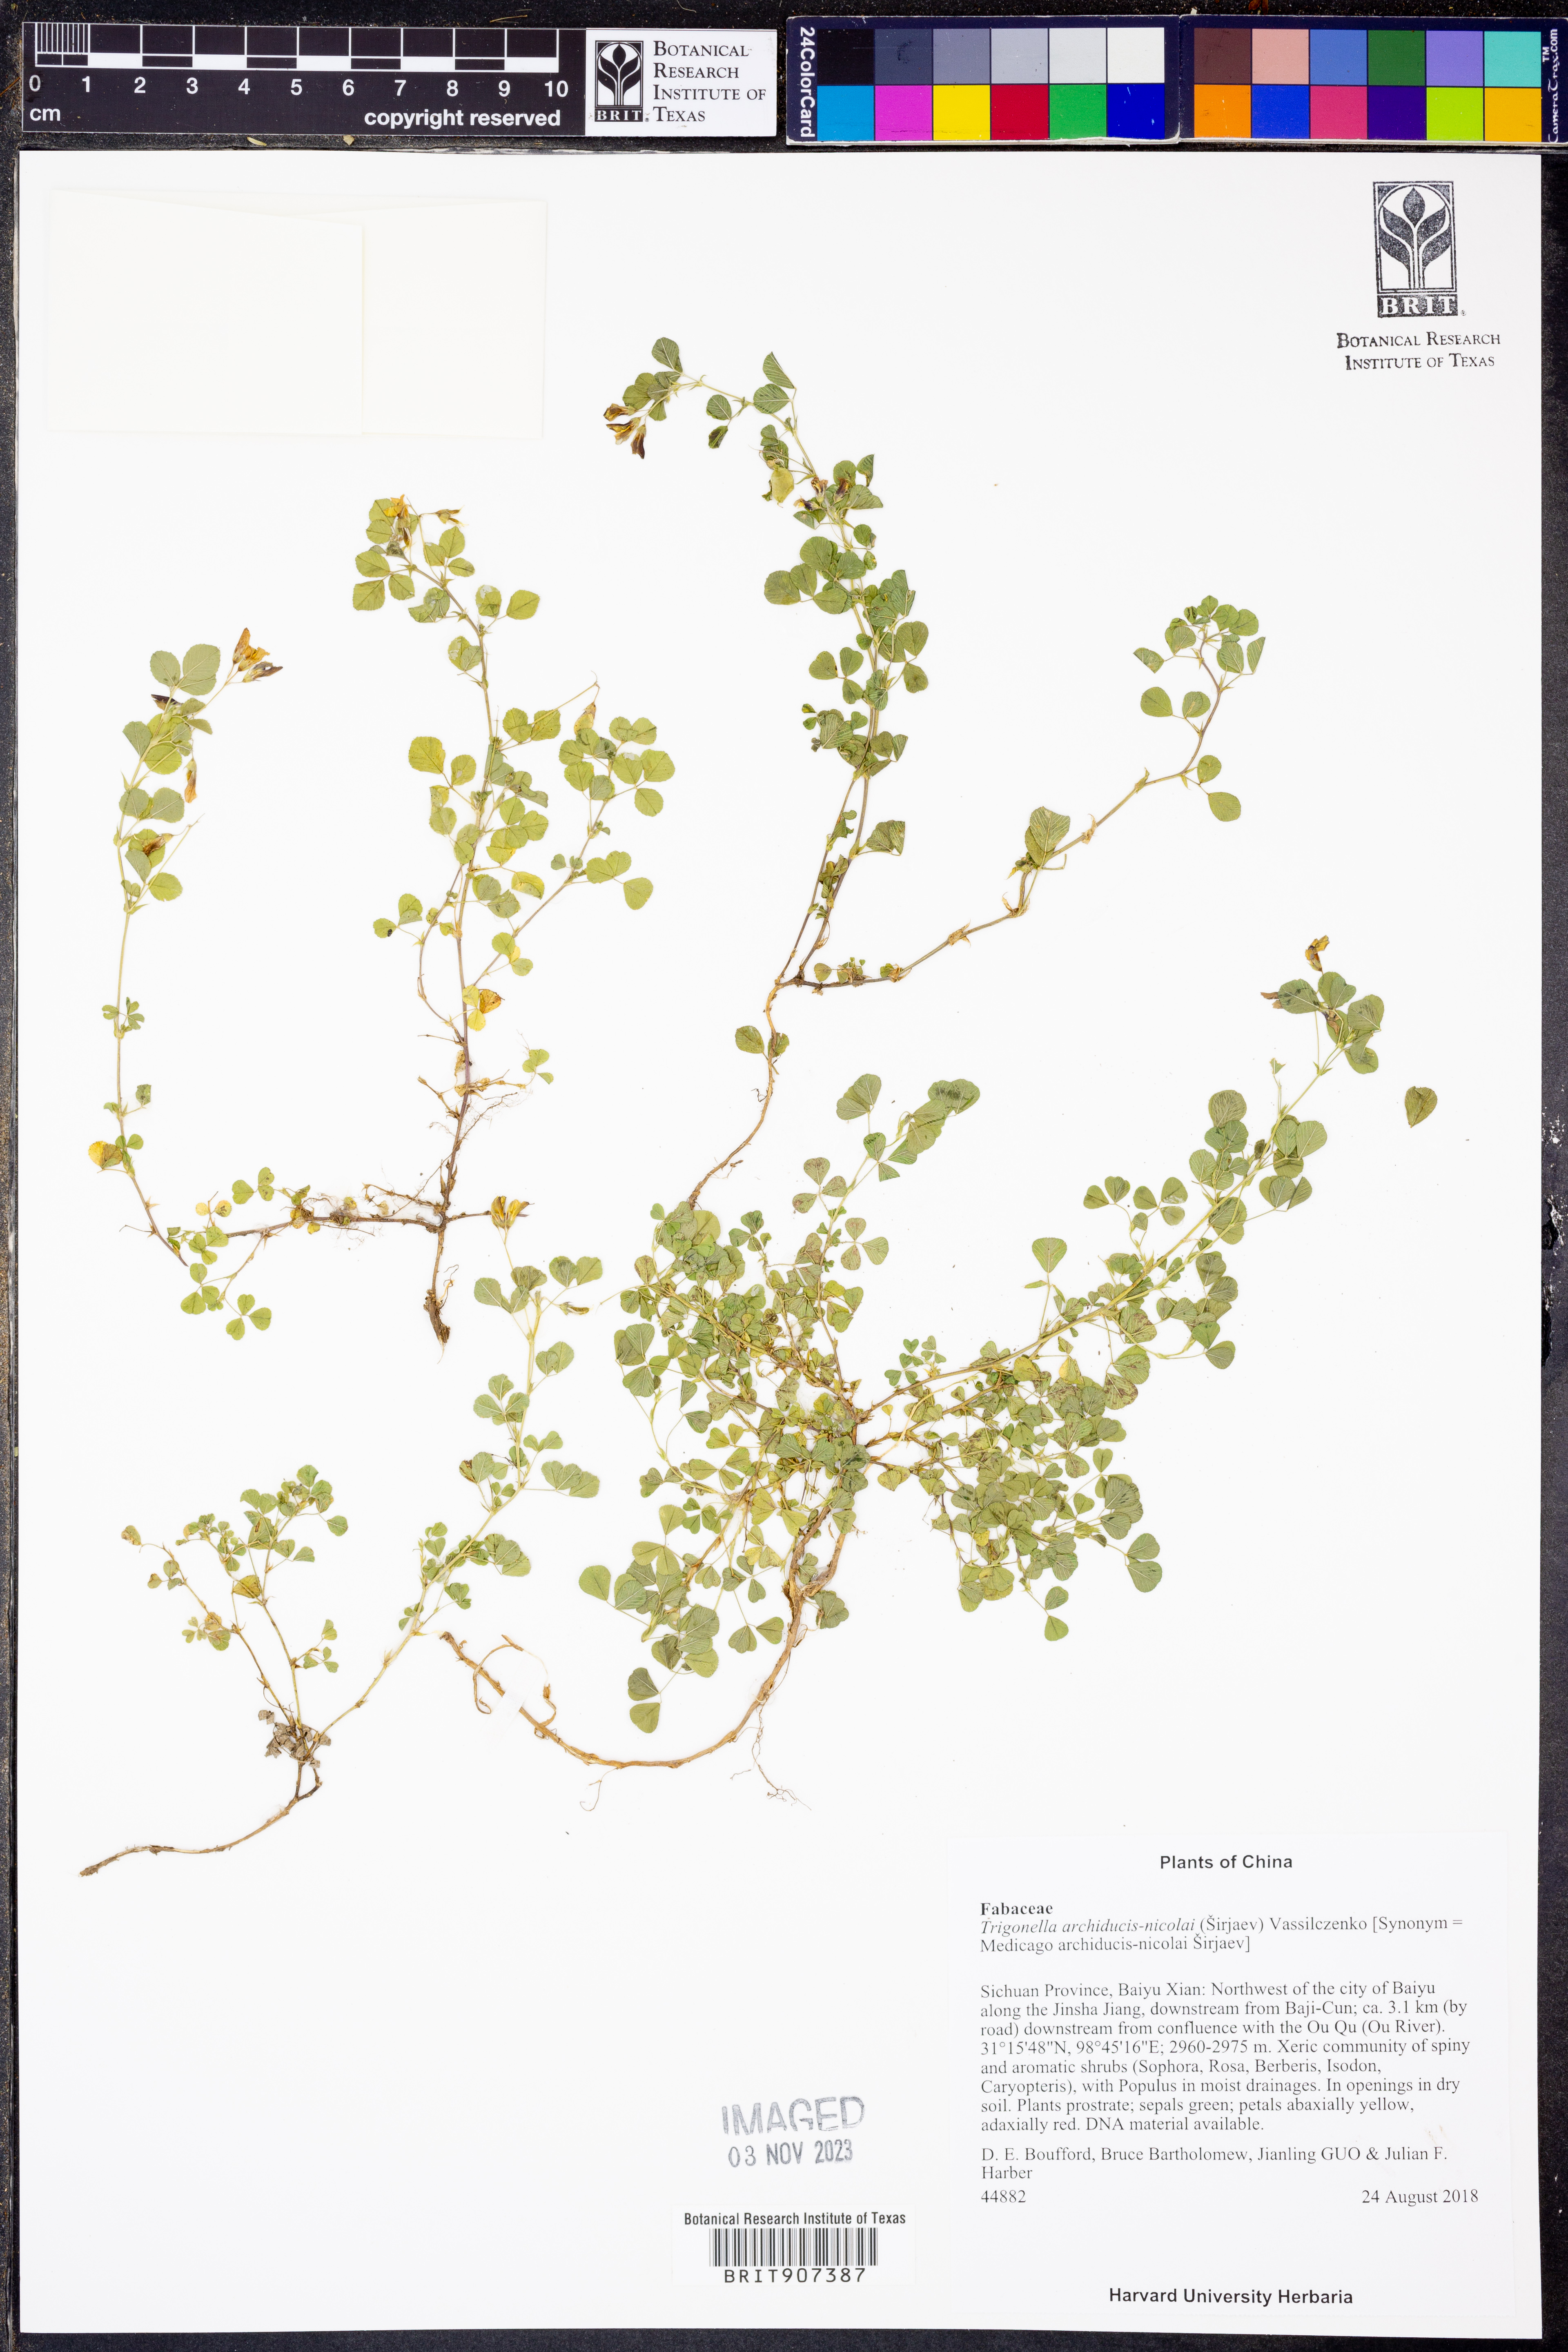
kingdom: Plantae
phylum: Tracheophyta
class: Magnoliopsida
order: Fabales
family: Fabaceae
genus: Medicago
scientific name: Medicago archiducis-nicolai
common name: Nicholas’s fenugreek
